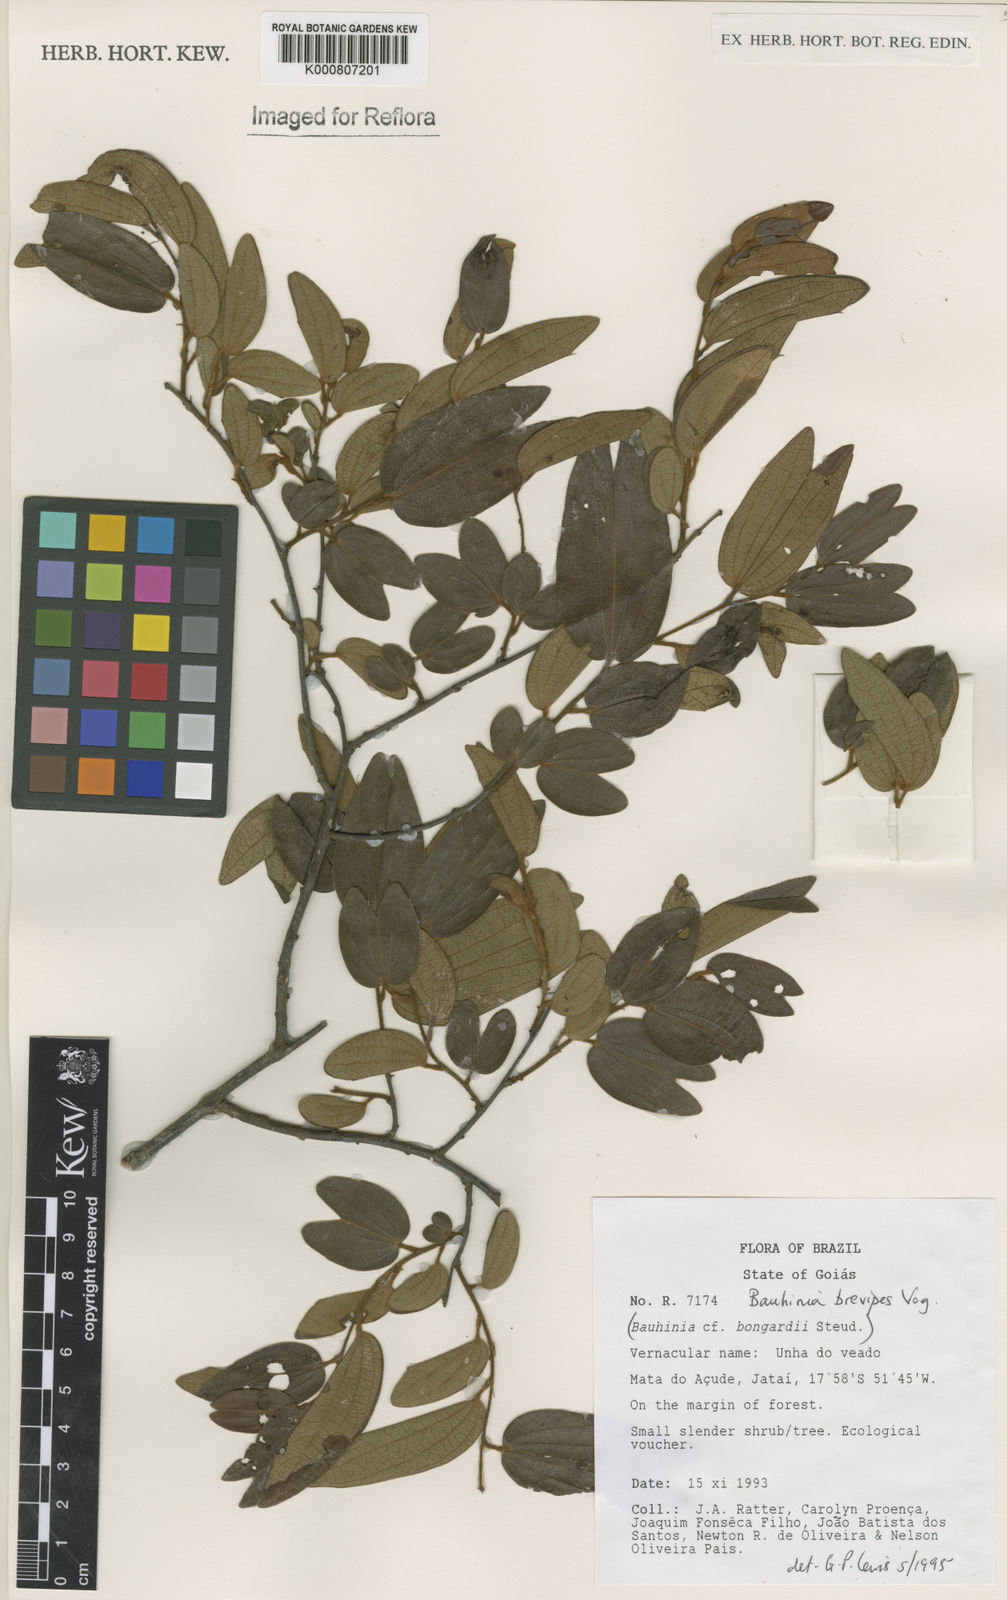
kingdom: Plantae
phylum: Tracheophyta
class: Magnoliopsida
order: Fabales
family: Fabaceae
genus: Bauhinia
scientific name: Bauhinia brevipes
